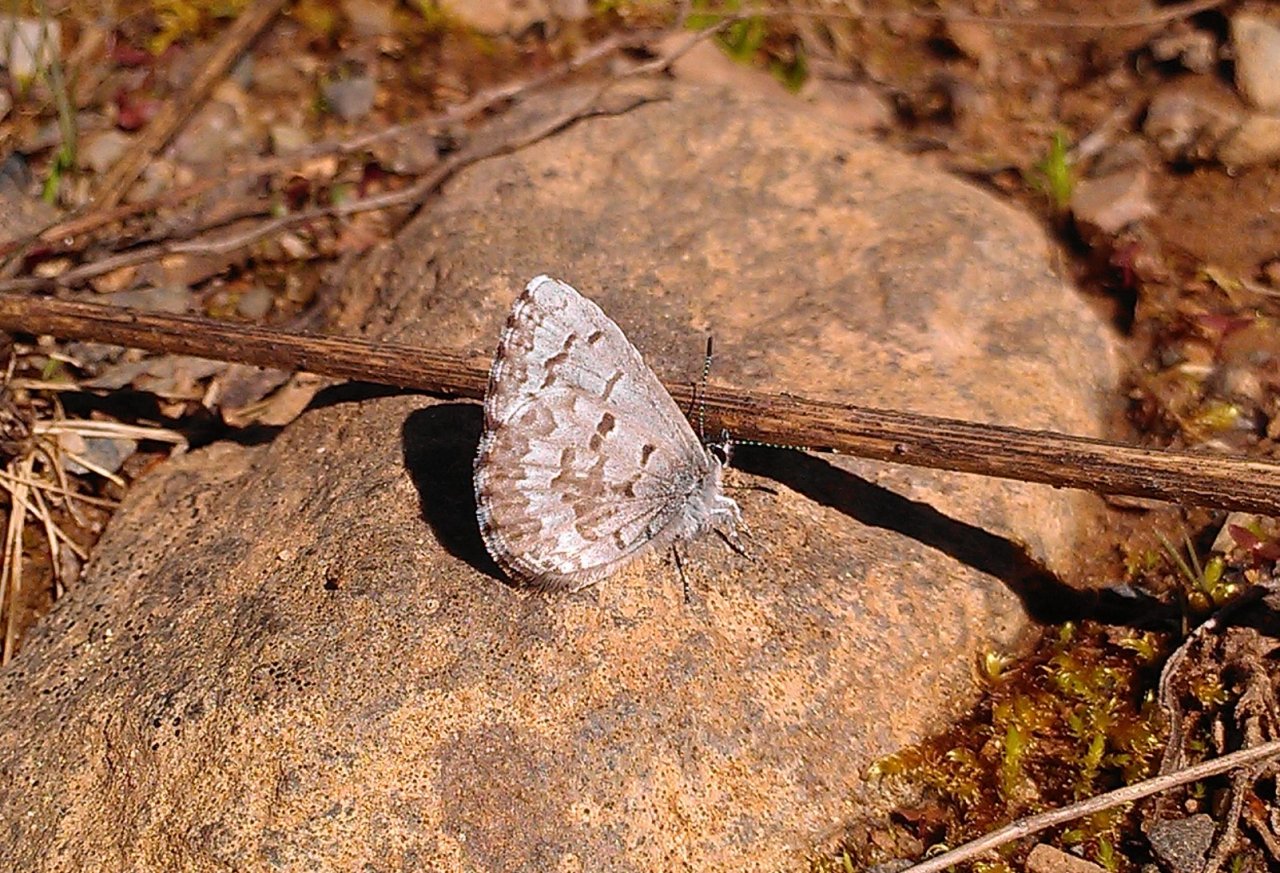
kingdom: Animalia
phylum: Arthropoda
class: Insecta
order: Lepidoptera
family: Lycaenidae
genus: Celastrina
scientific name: Celastrina lucia
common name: Northern Spring Azure
